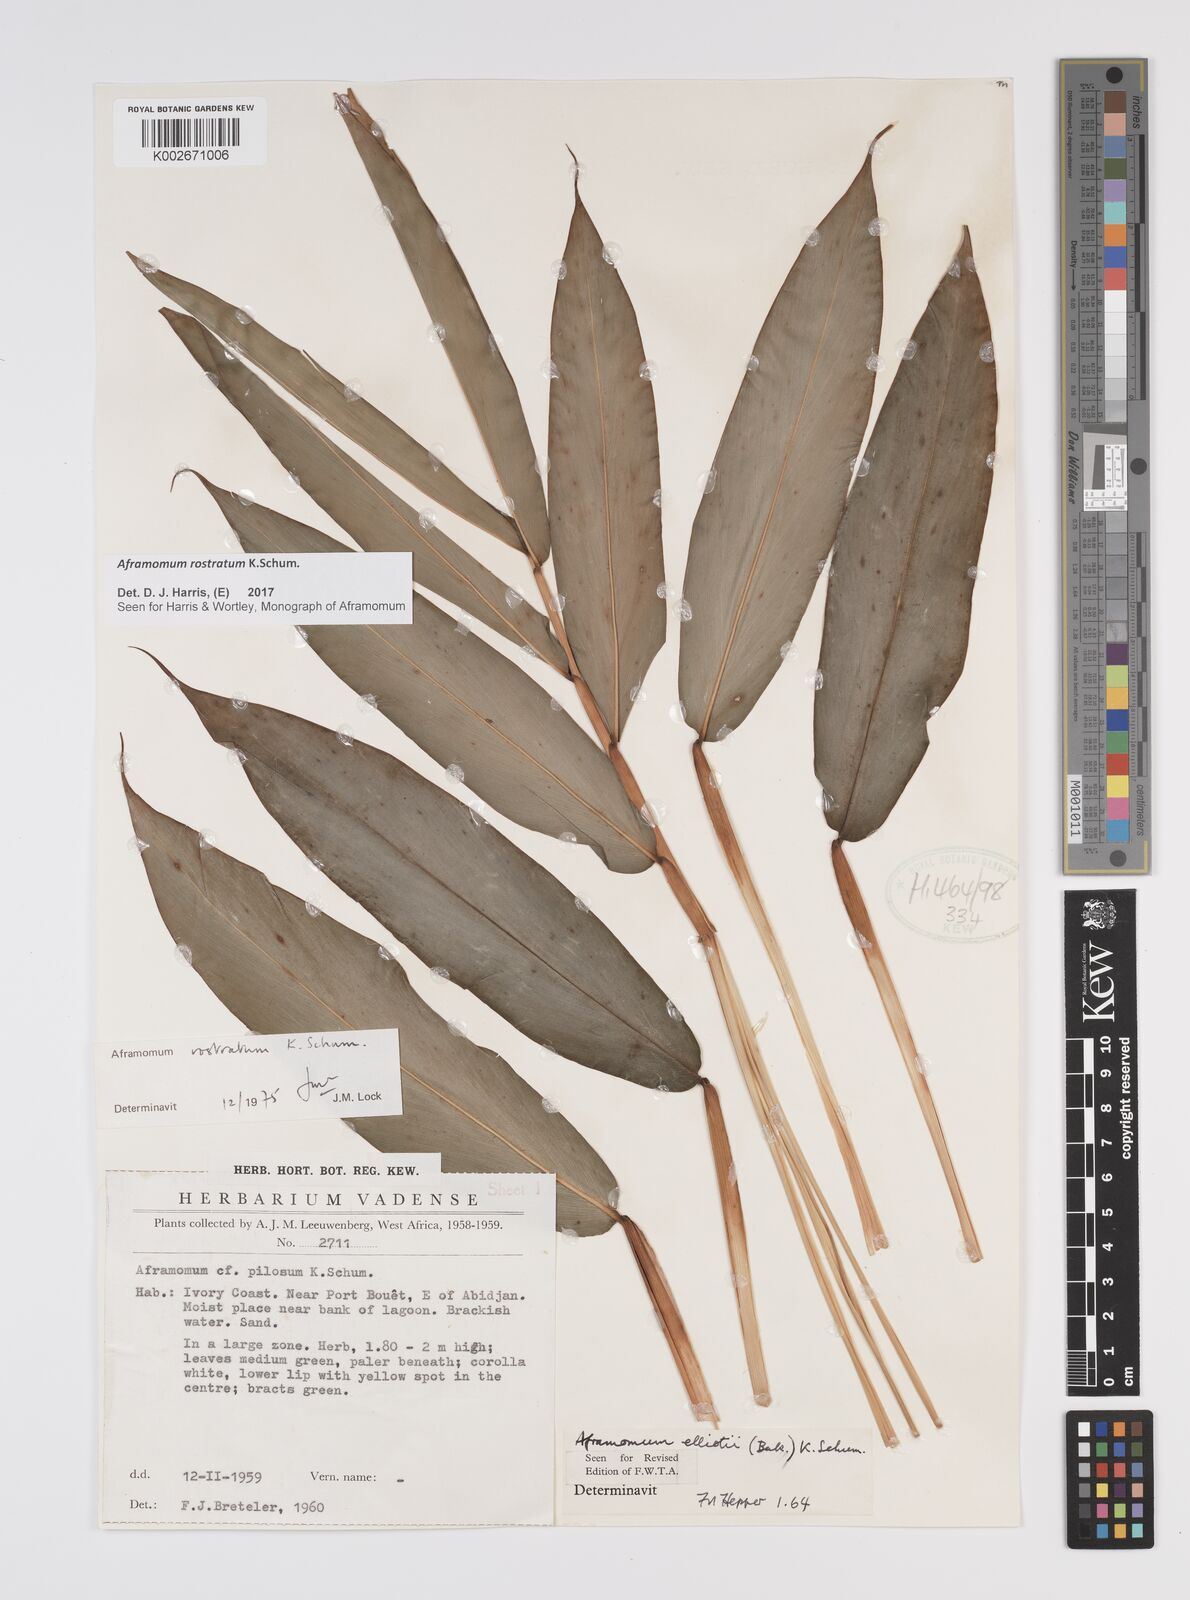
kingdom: Plantae
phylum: Tracheophyta
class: Liliopsida
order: Zingiberales
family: Zingiberaceae
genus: Aframomum
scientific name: Aframomum rostratum
